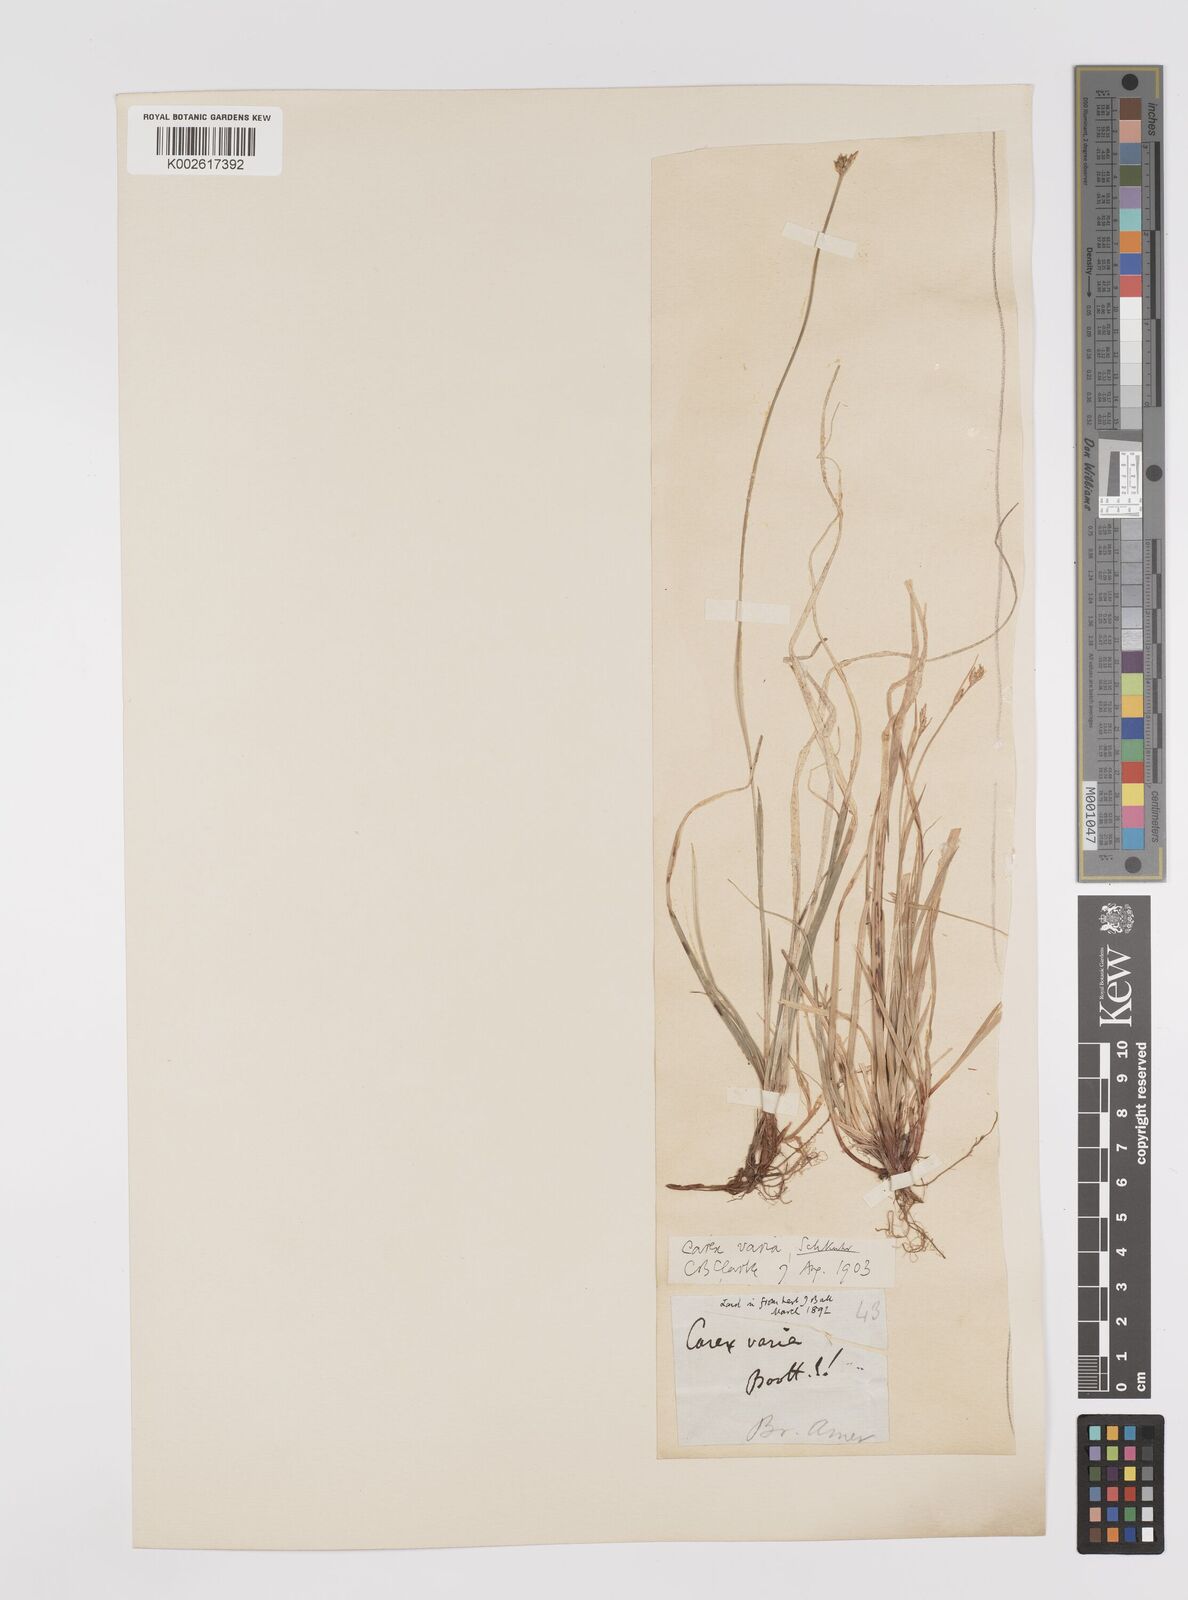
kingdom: Plantae
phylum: Tracheophyta
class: Liliopsida
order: Poales
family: Cyperaceae
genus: Carex
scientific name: Carex communis
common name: Colonial oak sedge
